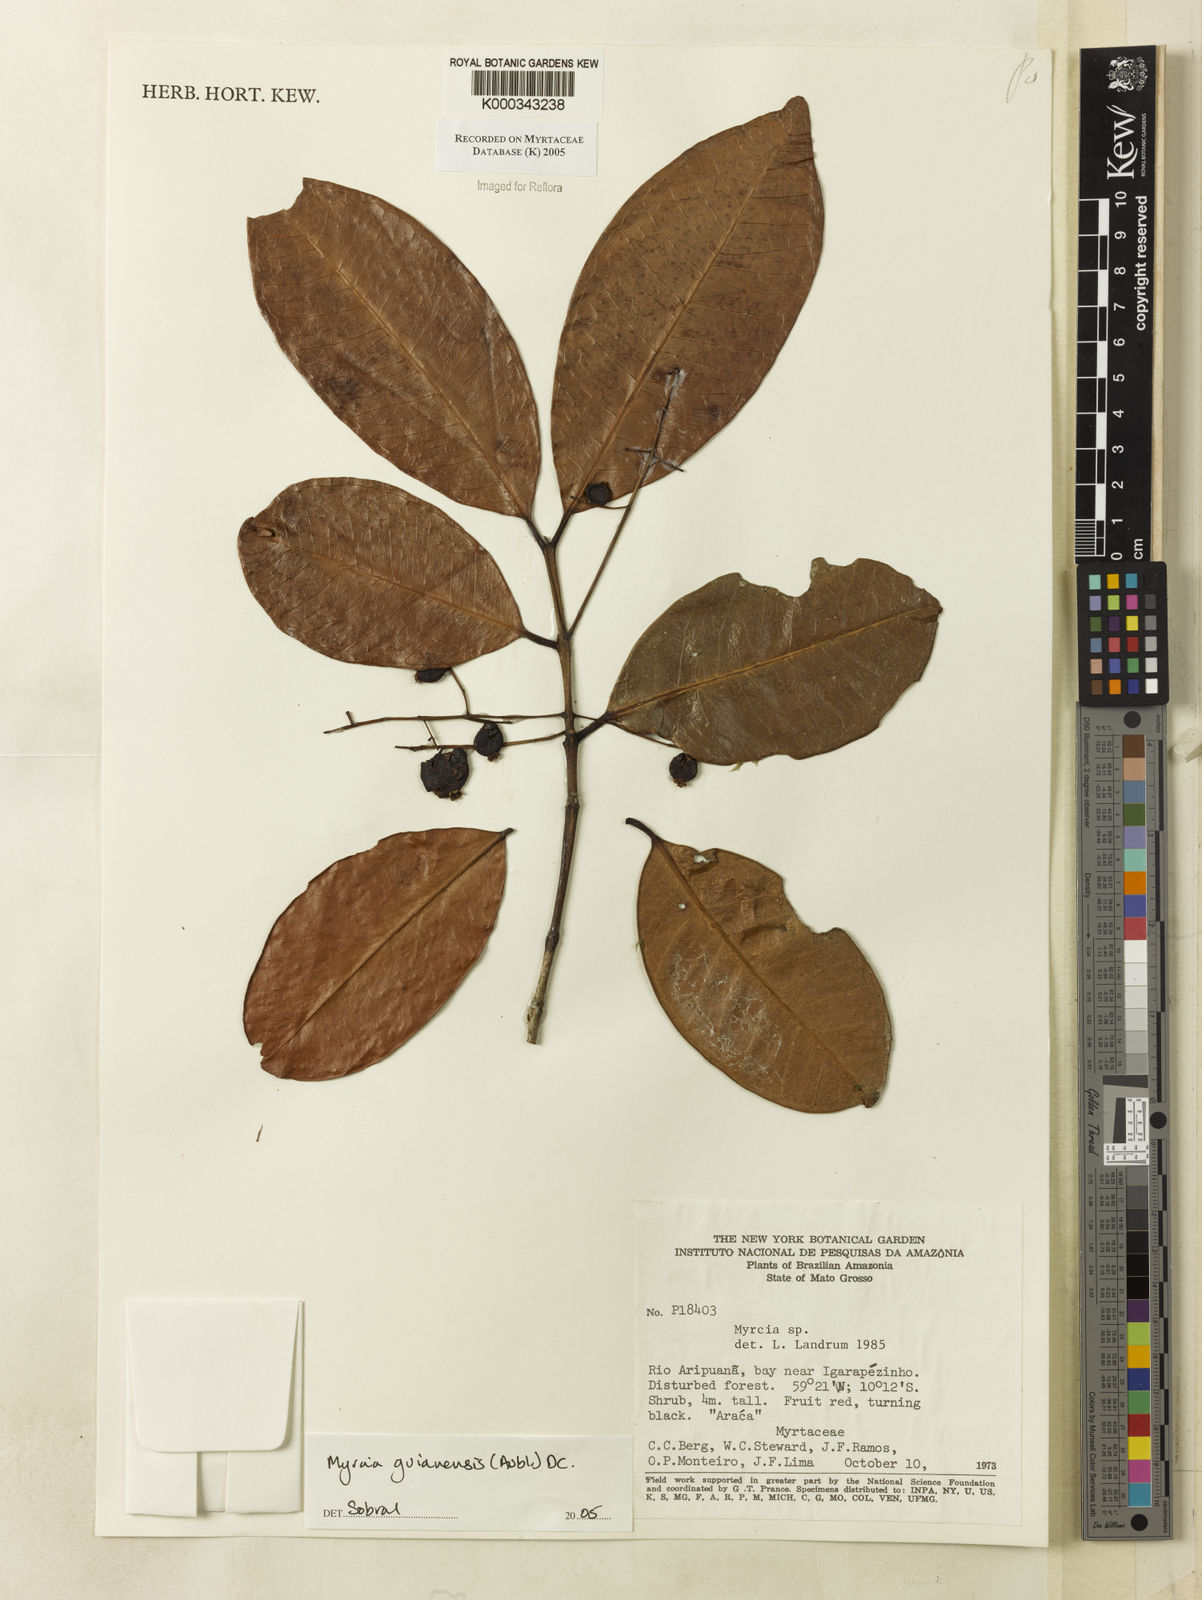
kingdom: Plantae
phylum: Tracheophyta
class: Magnoliopsida
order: Myrtales
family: Myrtaceae
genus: Myrcia
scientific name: Myrcia guianensis
